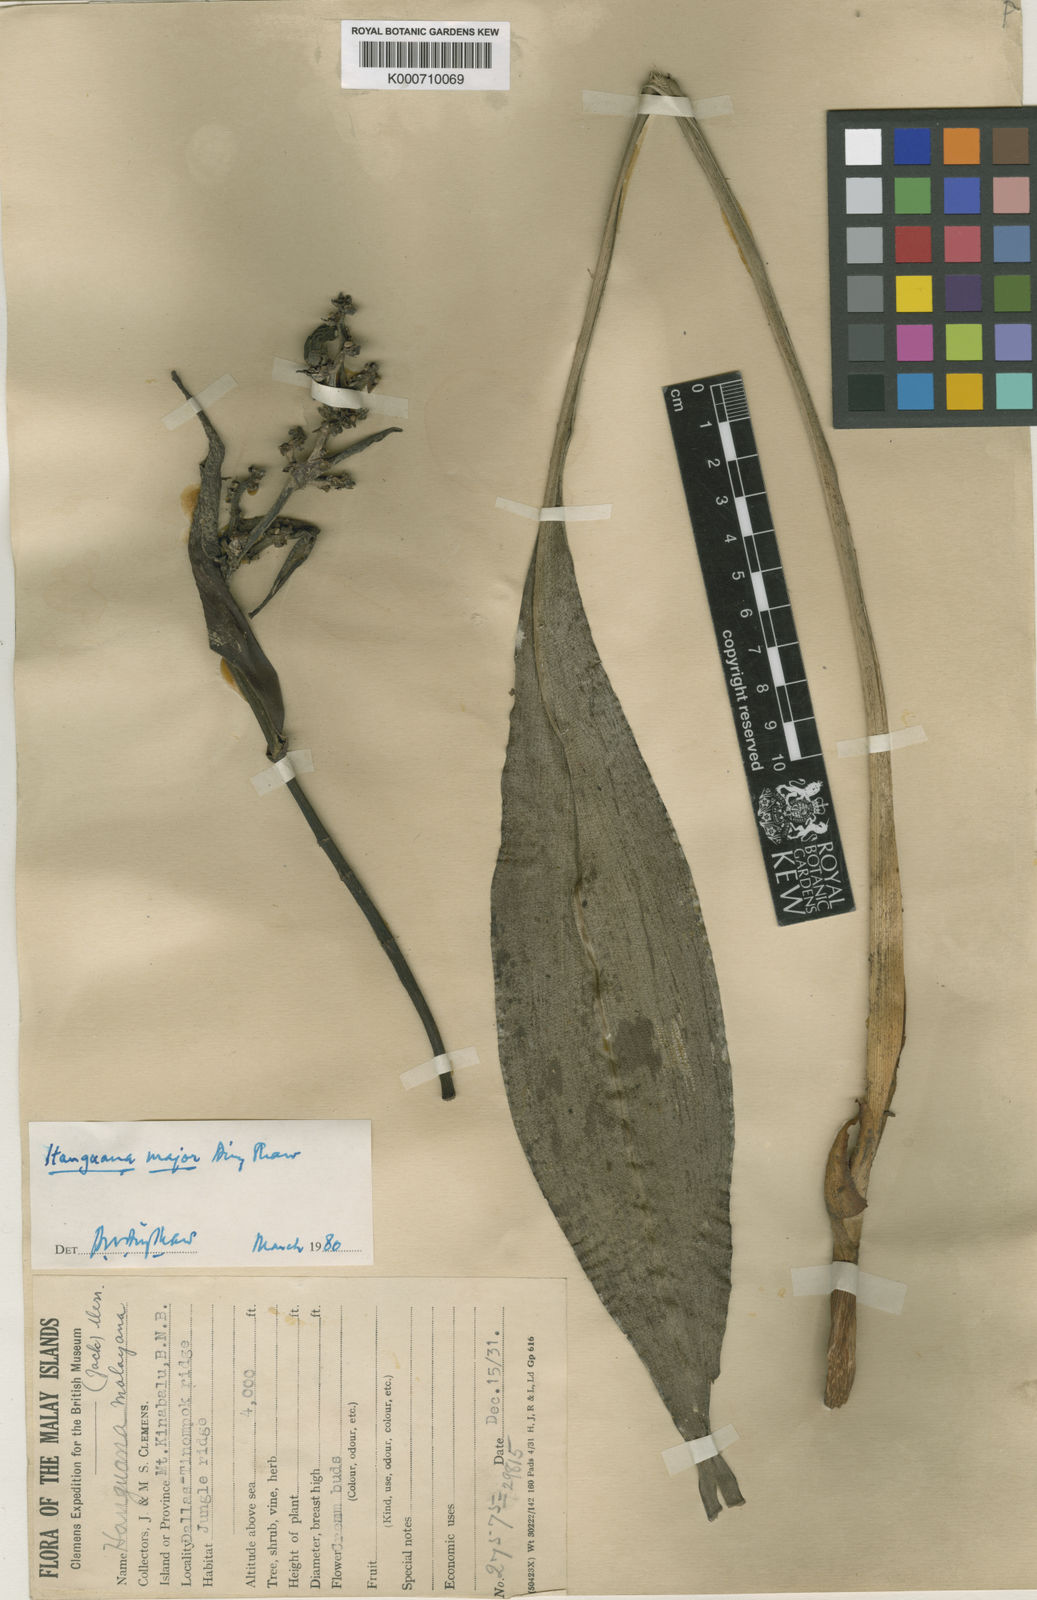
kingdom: Plantae
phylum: Tracheophyta
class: Liliopsida
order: Commelinales
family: Hanguanaceae
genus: Hanguana
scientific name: Hanguana major
